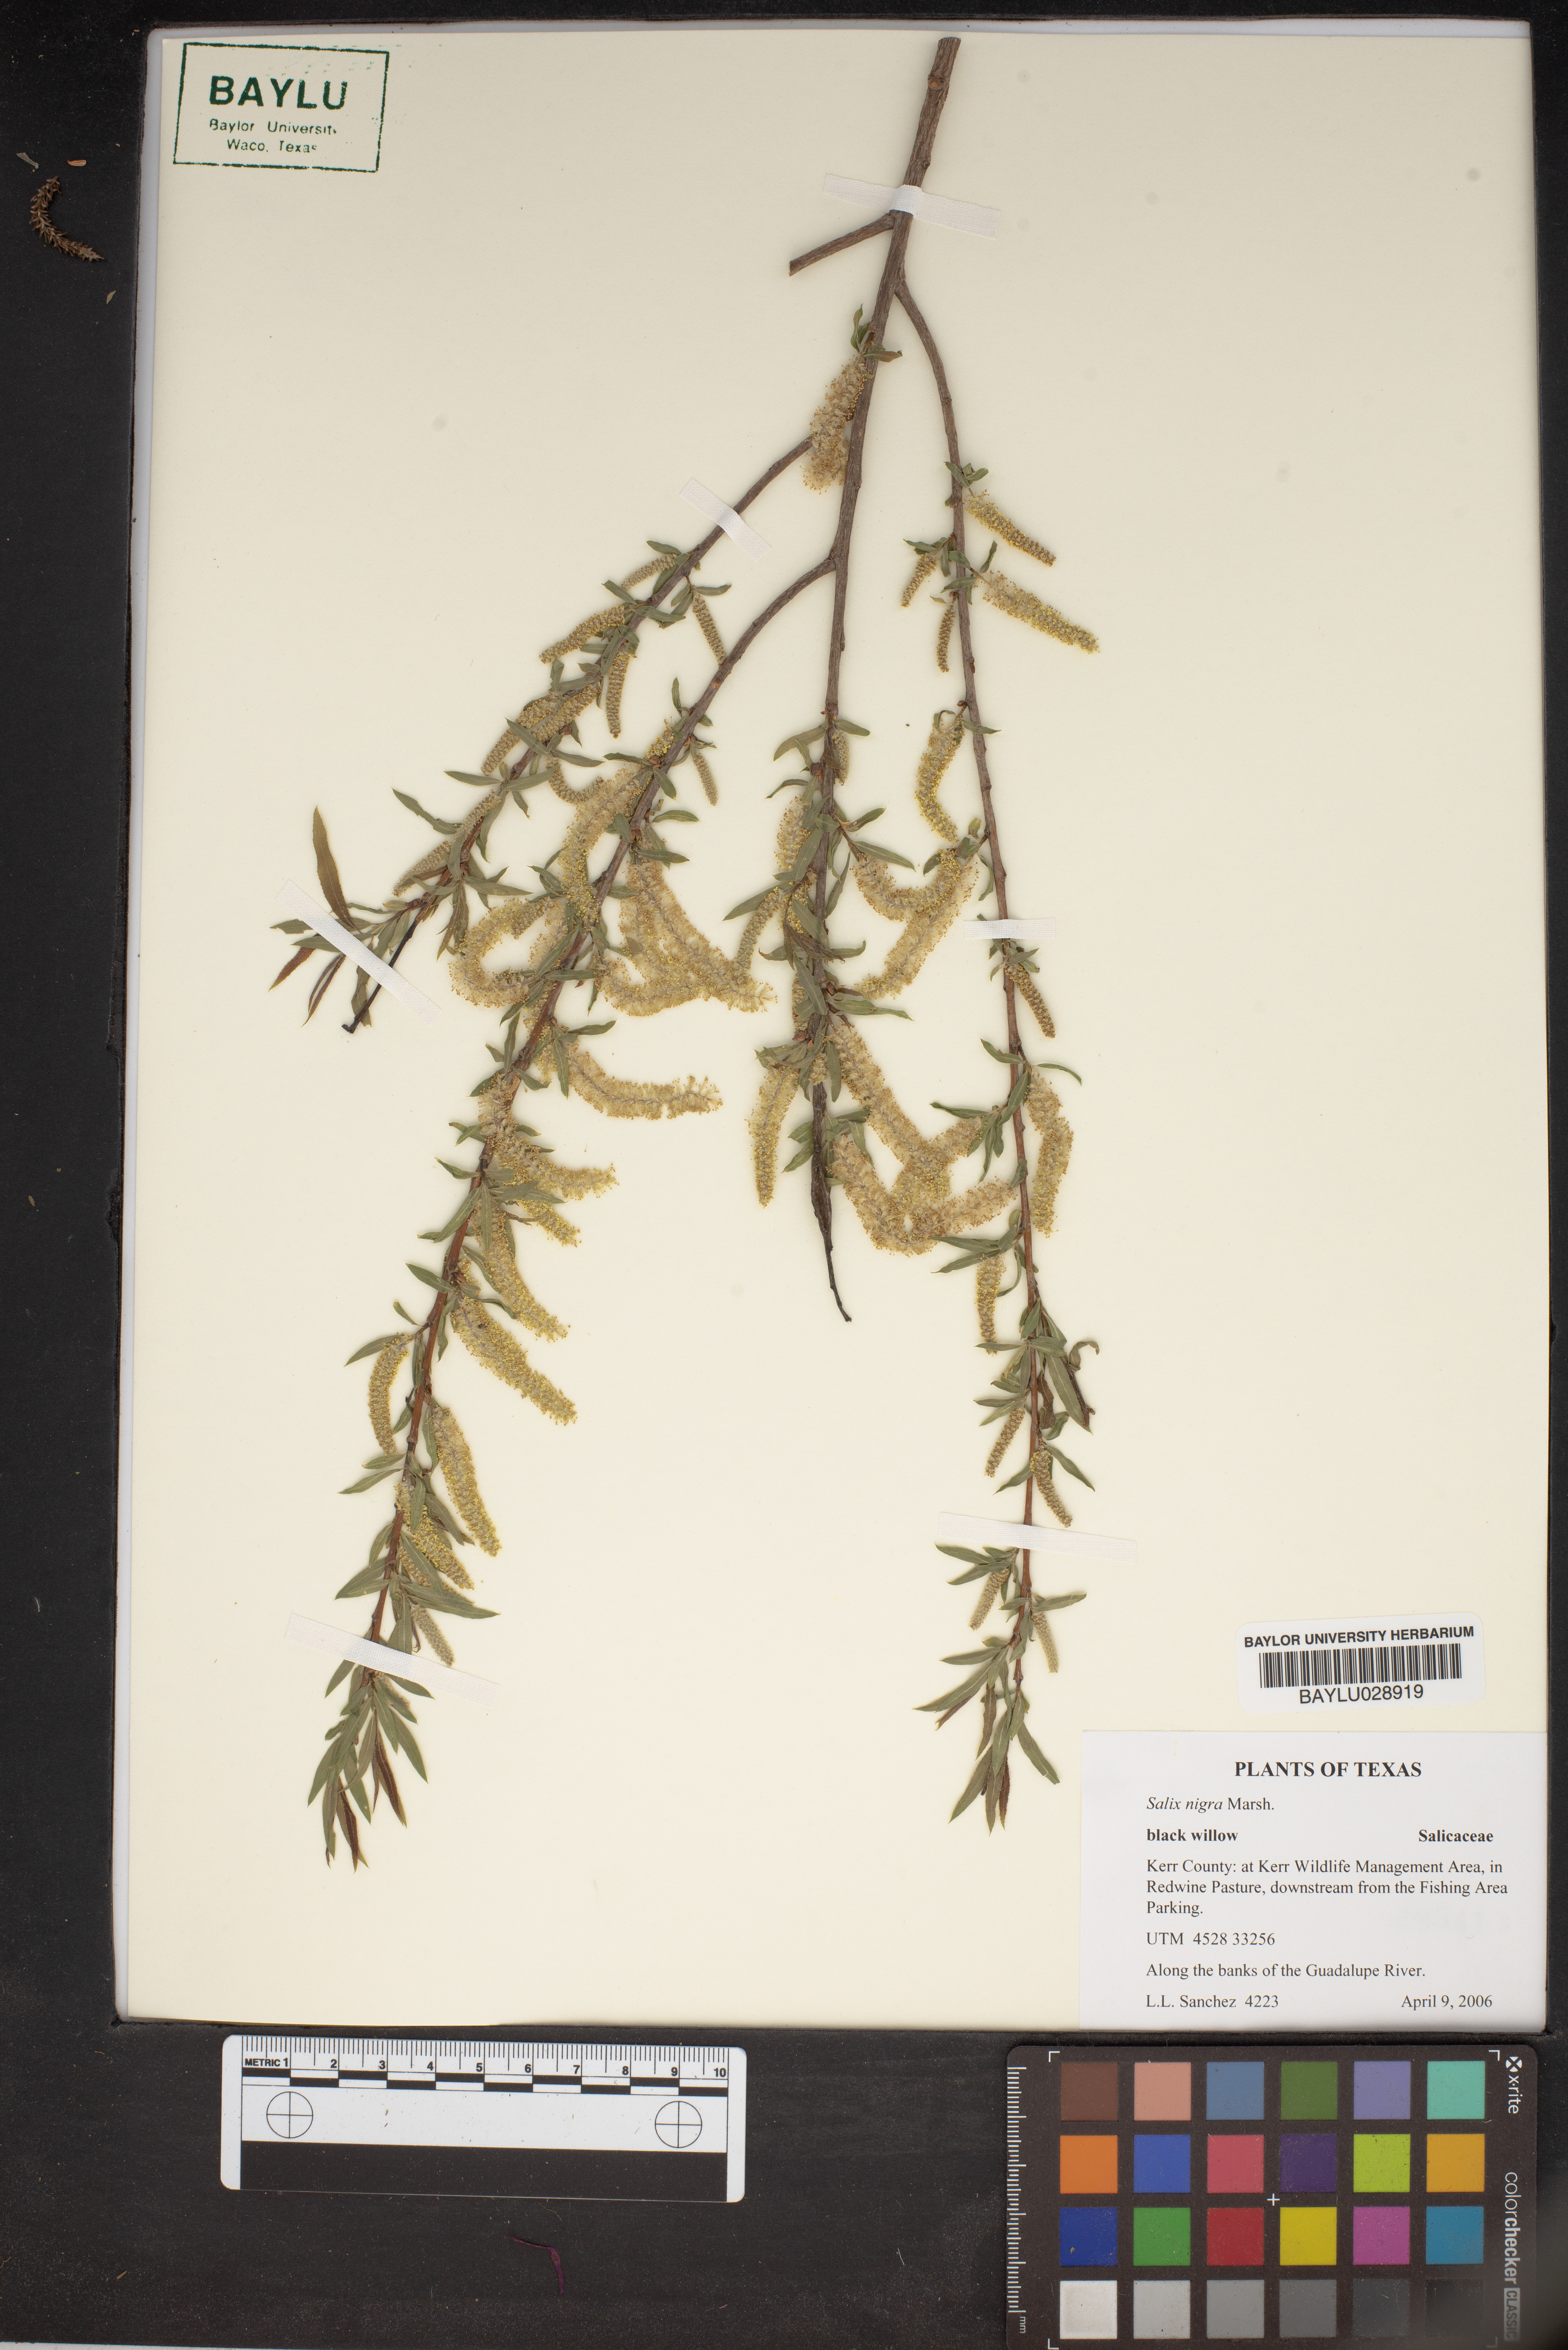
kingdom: Plantae
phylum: Tracheophyta
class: Magnoliopsida
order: Malpighiales
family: Salicaceae
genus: Salix
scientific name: Salix nigra
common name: Black willow
